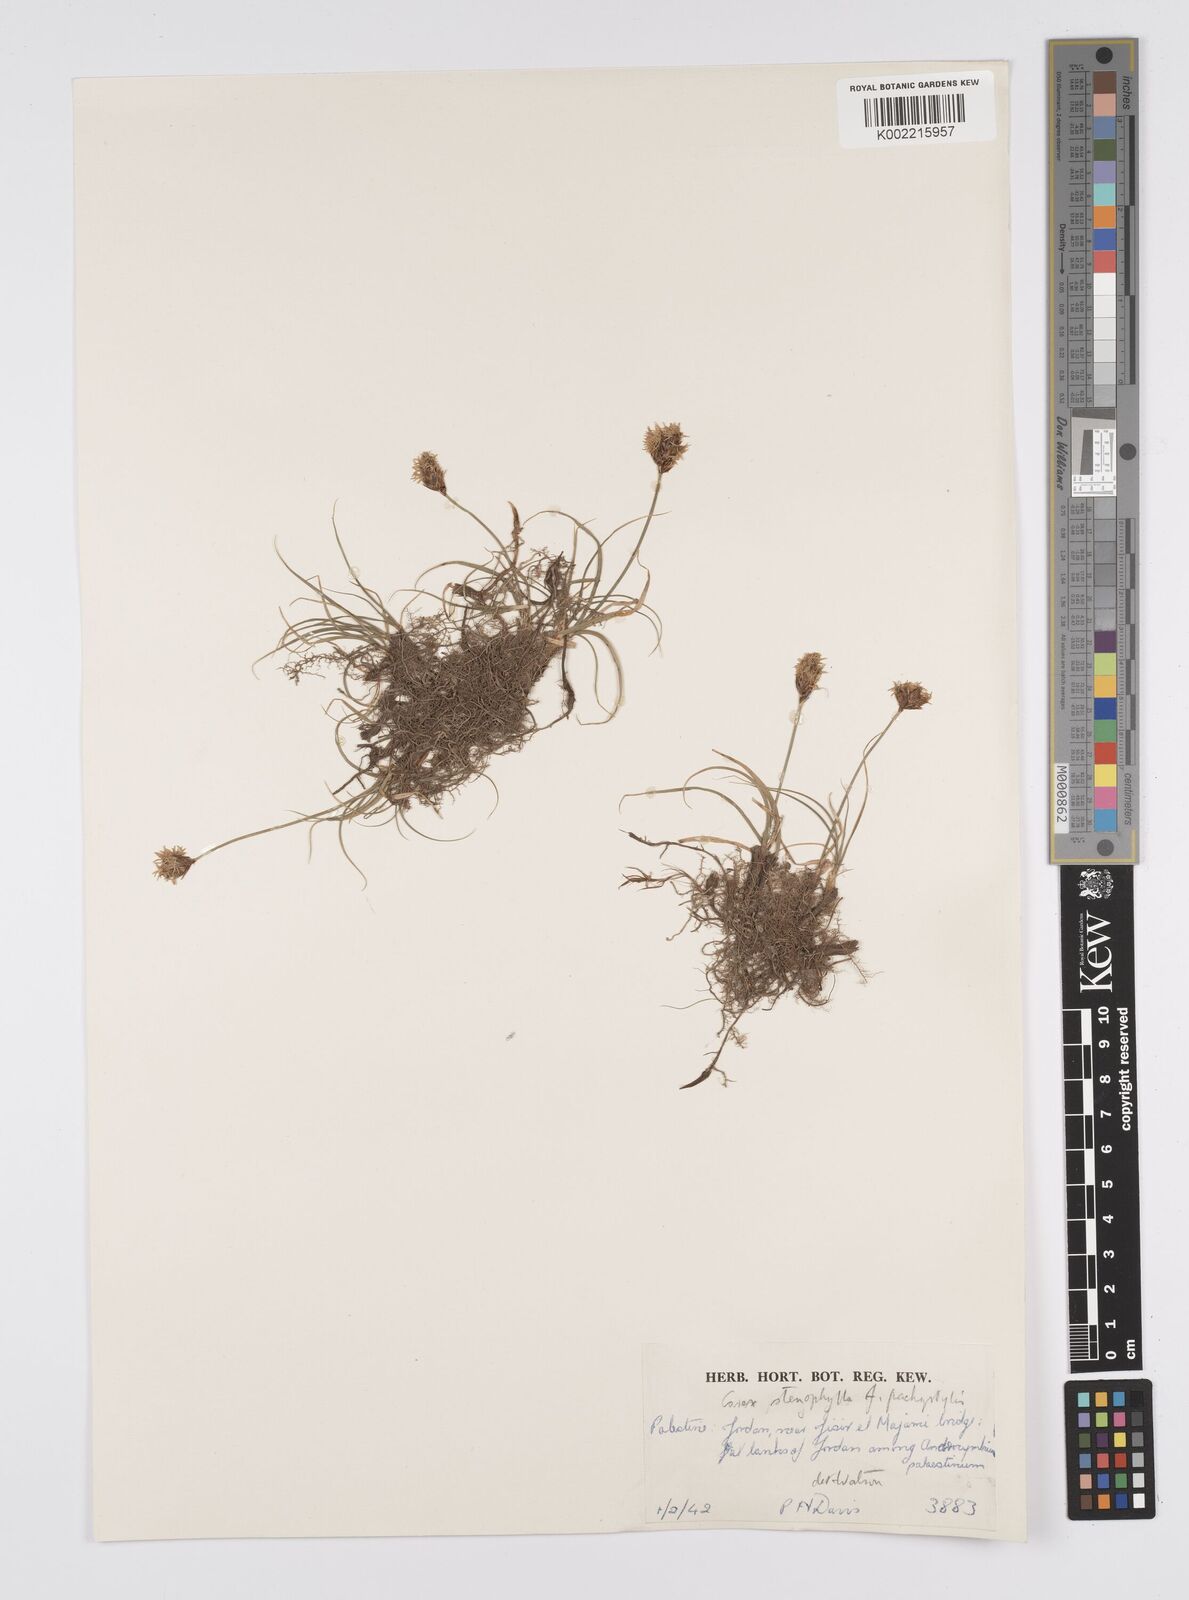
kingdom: Plantae
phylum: Tracheophyta
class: Liliopsida
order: Poales
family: Cyperaceae
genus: Carex
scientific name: Carex pachystylis
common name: Thick-stem sedge
